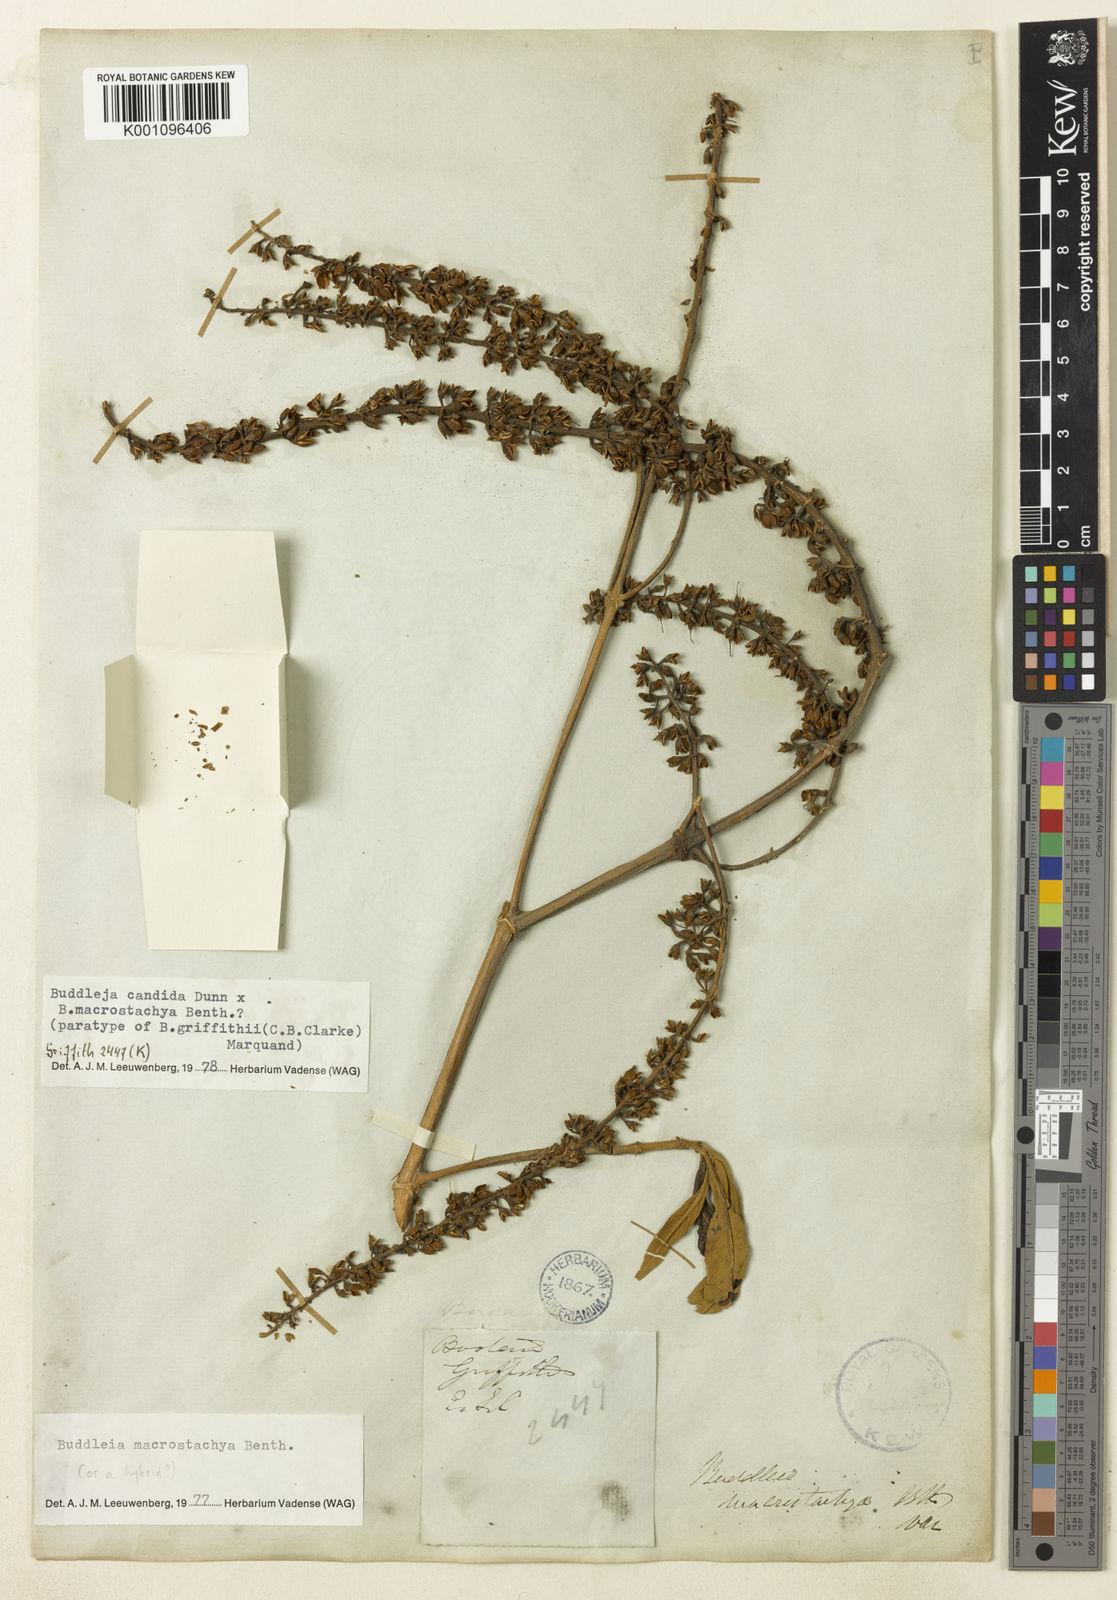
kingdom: Plantae
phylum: Tracheophyta
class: Magnoliopsida
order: Lamiales
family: Scrophulariaceae
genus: Buddleja
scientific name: Buddleja griffithii
